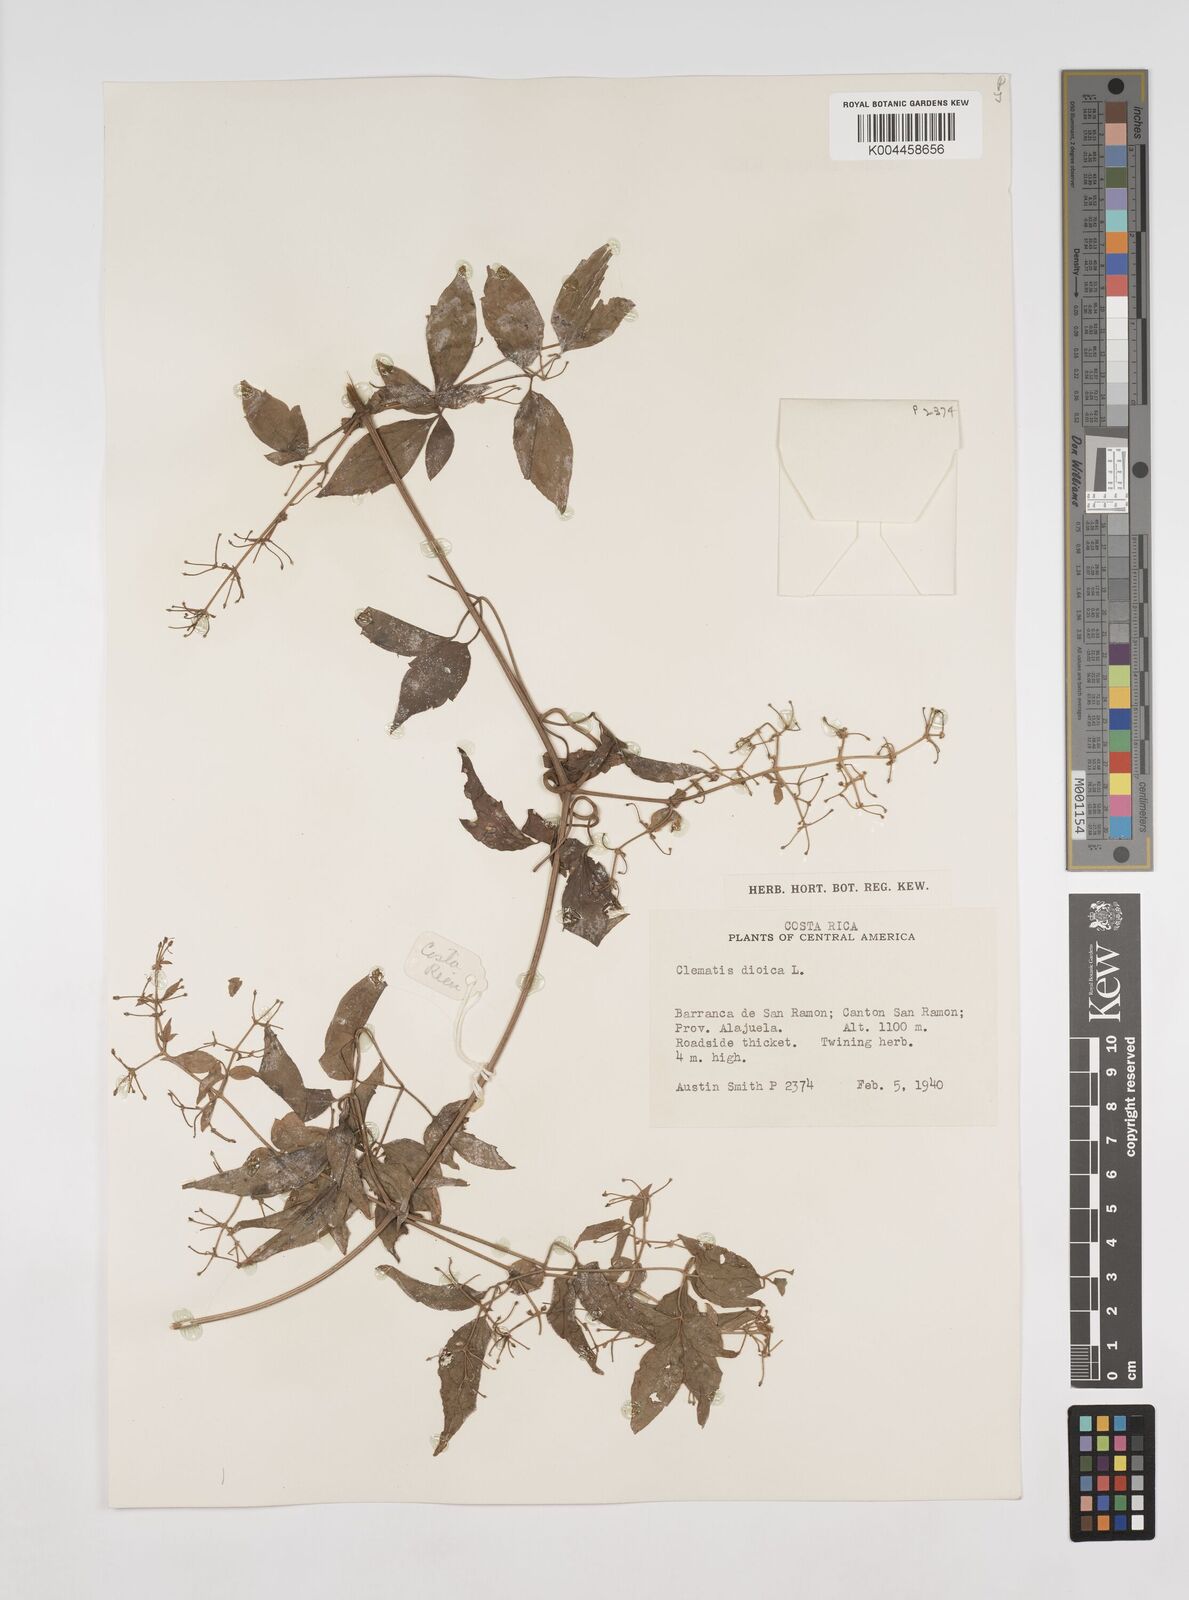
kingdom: Plantae
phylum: Tracheophyta
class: Magnoliopsida
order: Ranunculales
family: Ranunculaceae
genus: Clematis
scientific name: Clematis dioica
